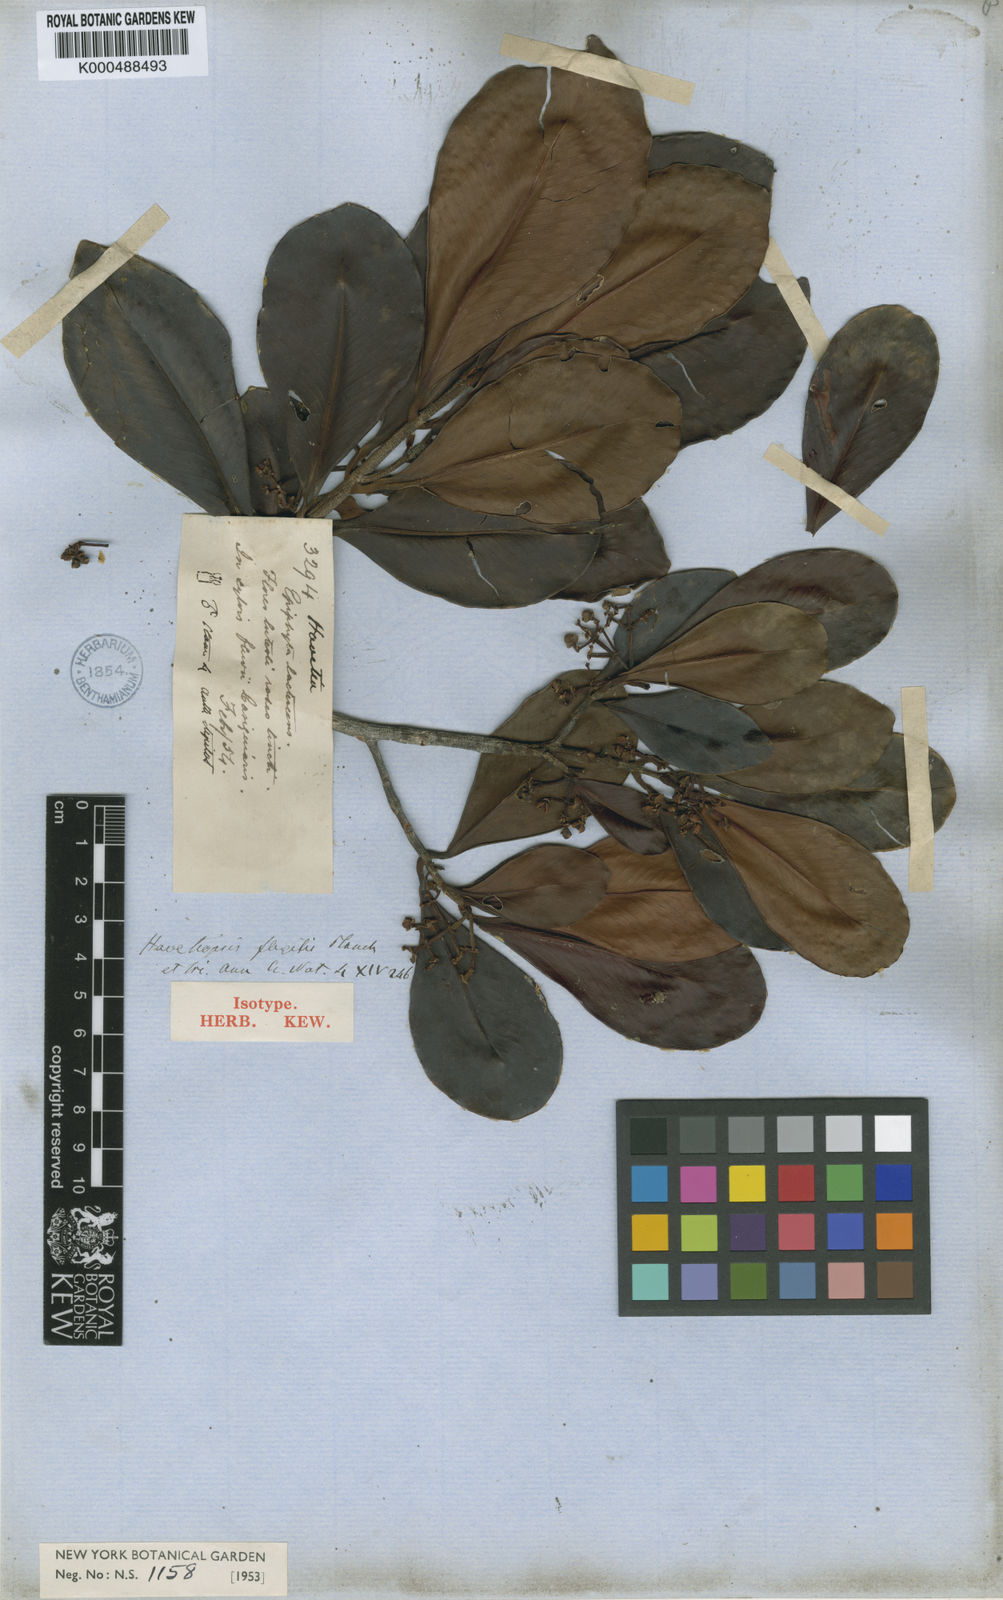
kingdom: Plantae
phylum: Tracheophyta
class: Magnoliopsida
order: Malpighiales
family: Clusiaceae
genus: Clusia
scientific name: Clusia flavida
